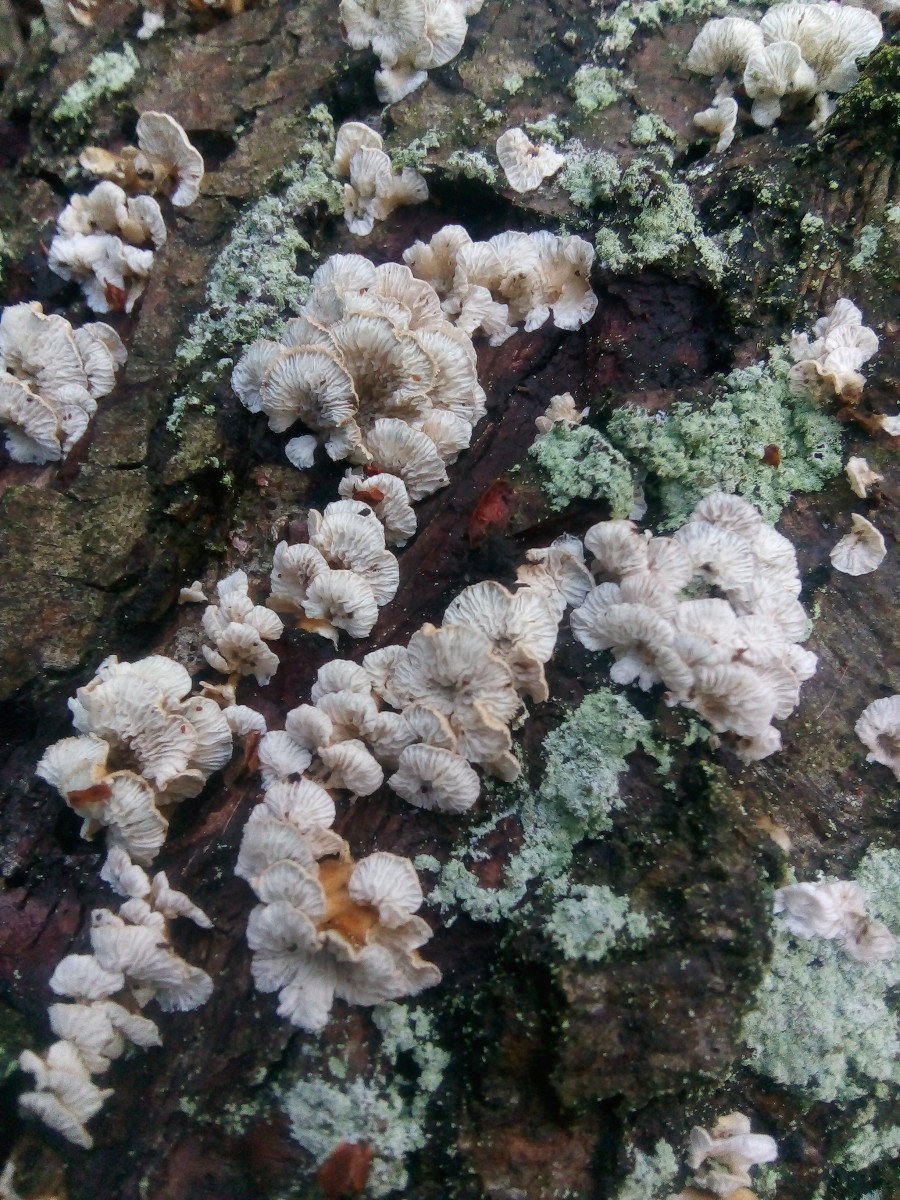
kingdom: Fungi
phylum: Basidiomycota
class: Agaricomycetes
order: Amylocorticiales
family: Amylocorticiaceae
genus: Plicaturopsis
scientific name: Plicaturopsis crispa
